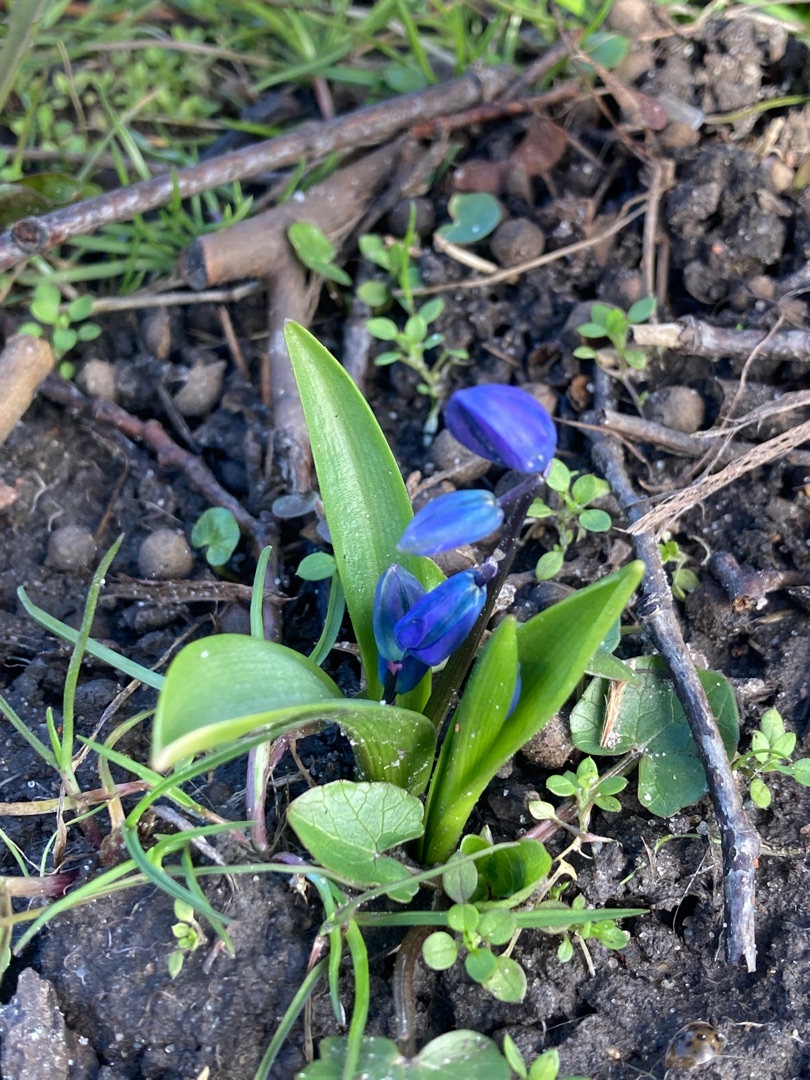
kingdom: Plantae
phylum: Tracheophyta
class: Liliopsida
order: Asparagales
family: Asparagaceae
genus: Scilla
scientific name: Scilla siberica
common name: Russisk skilla
